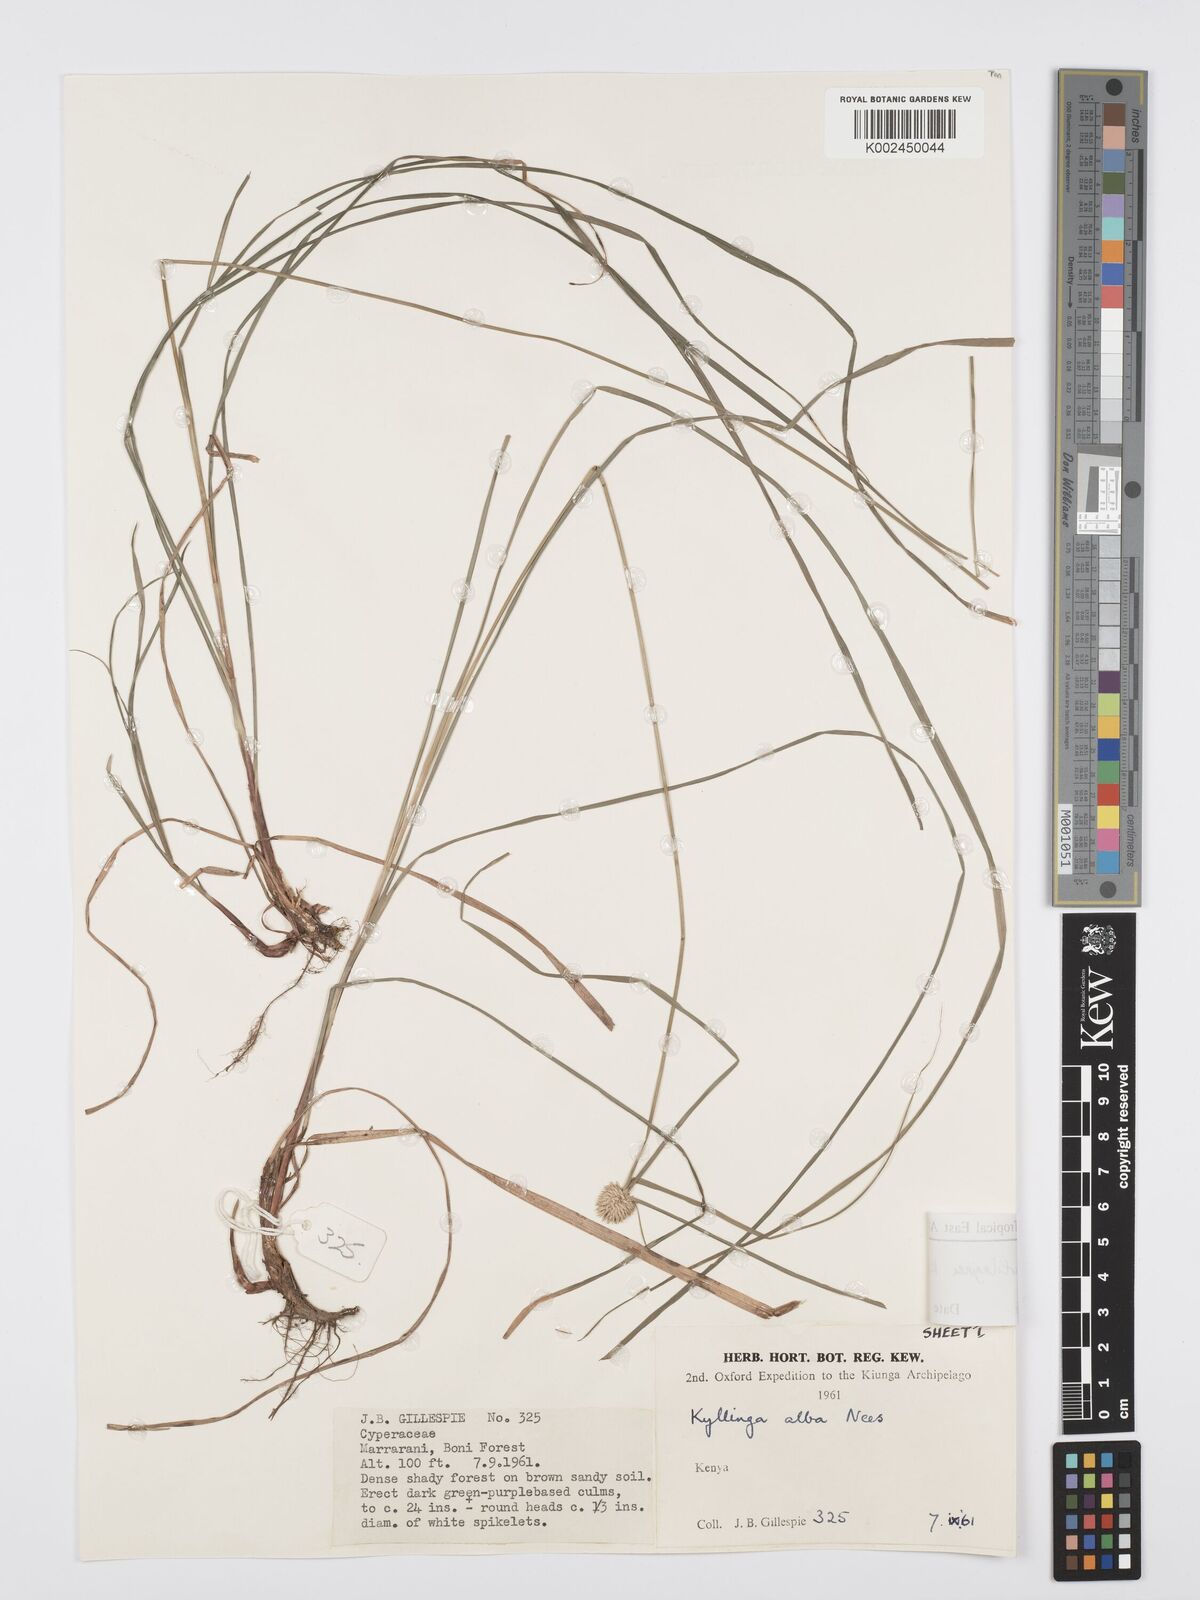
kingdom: Plantae
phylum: Tracheophyta
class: Liliopsida
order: Poales
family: Cyperaceae
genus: Cyperus
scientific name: Cyperus cartilagineus
